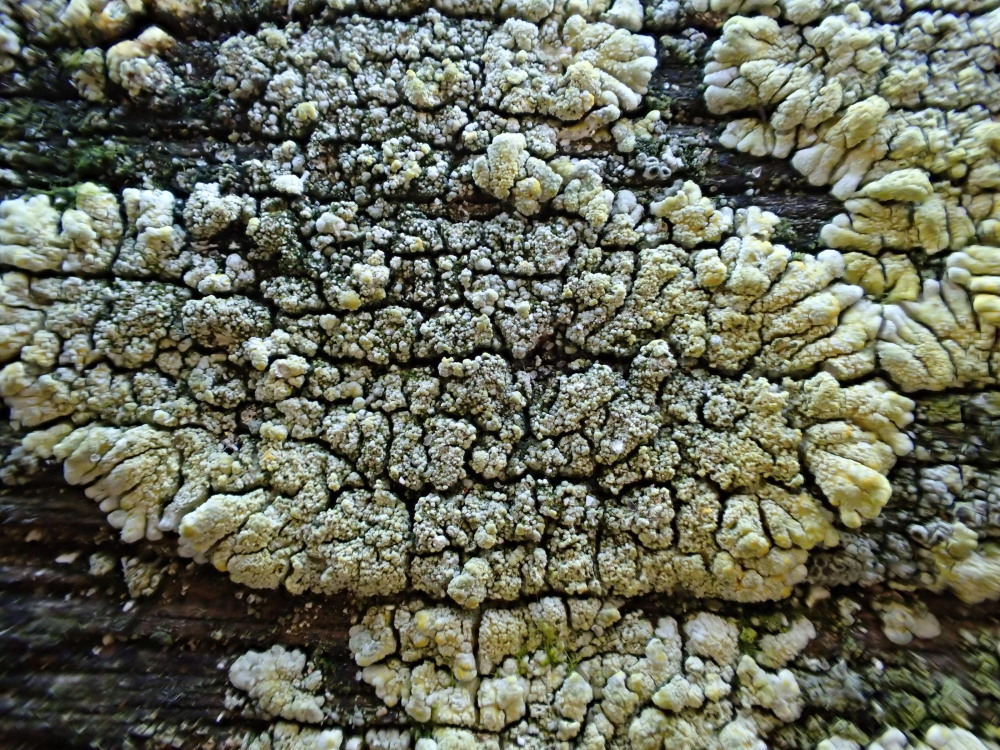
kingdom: Fungi
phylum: Ascomycota
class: Lecanoromycetes
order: Teloschistales
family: Teloschistaceae
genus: Verrucoplaca
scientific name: Verrucoplaca verruculifera
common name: koldkyst-orangelav
